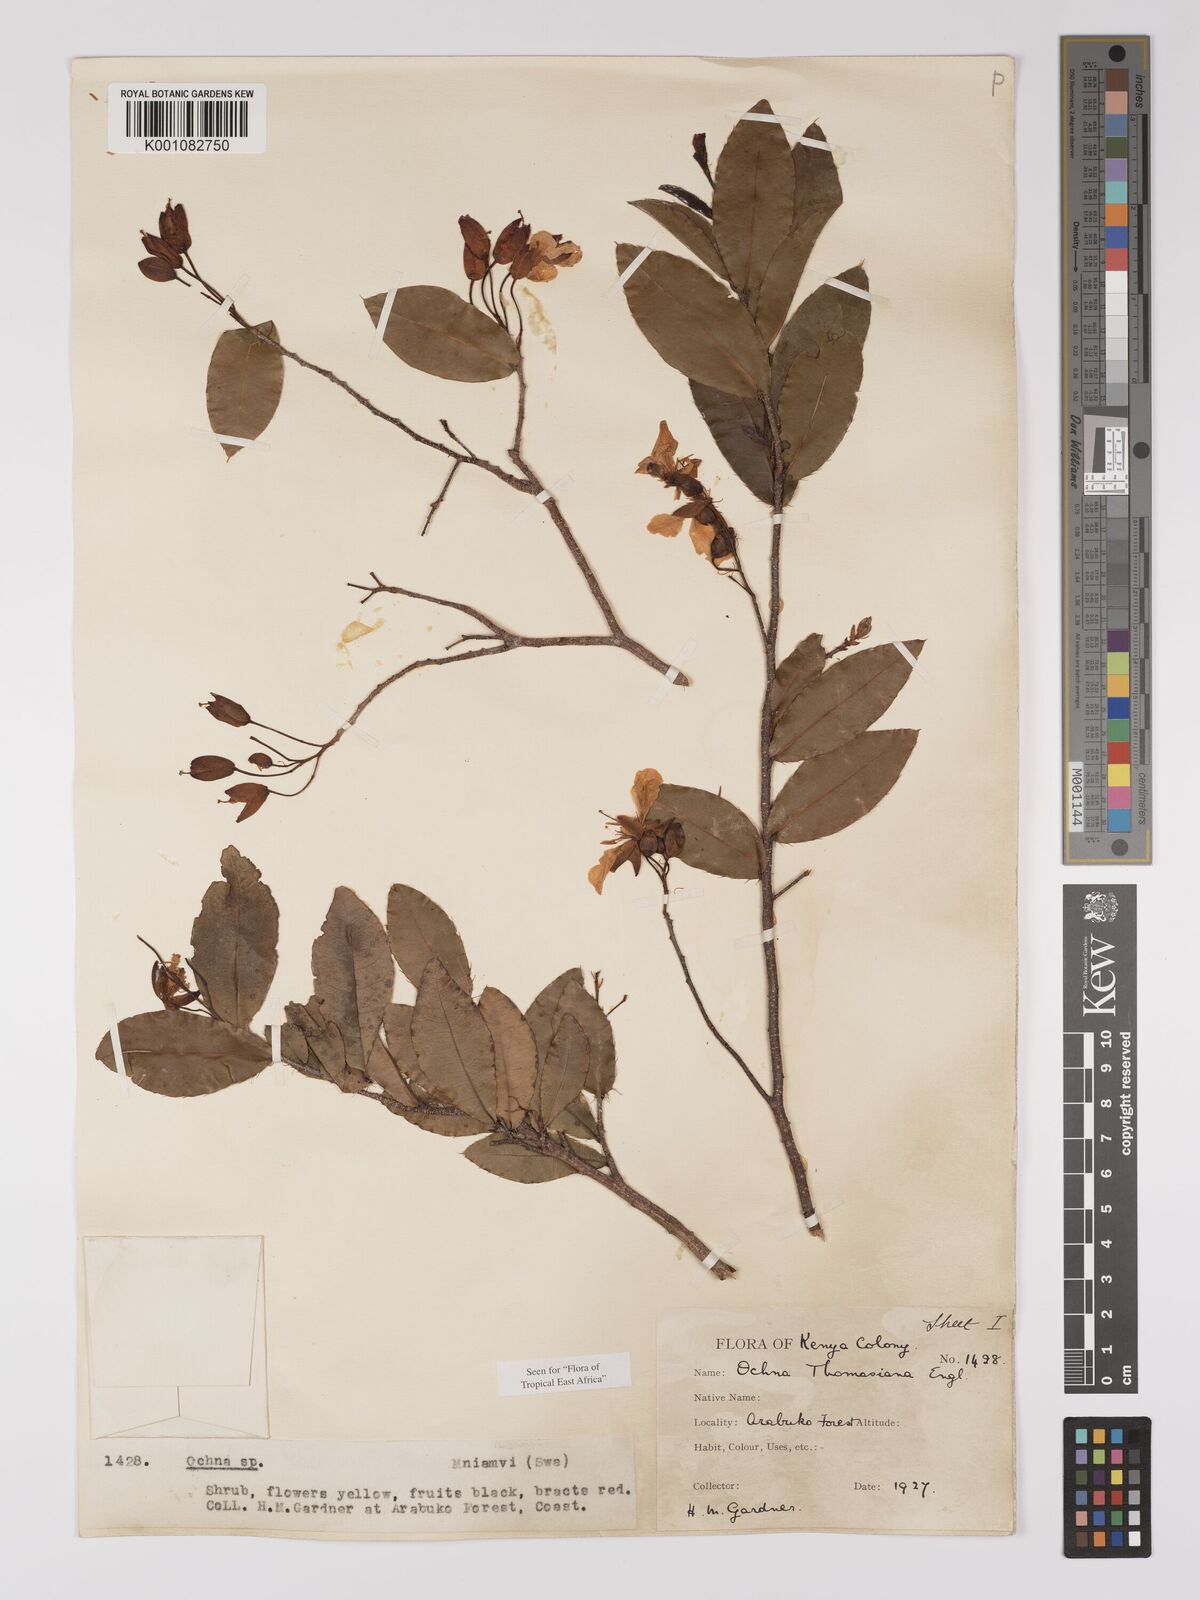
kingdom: Plantae
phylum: Tracheophyta
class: Magnoliopsida
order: Malpighiales
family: Ochnaceae
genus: Ochna
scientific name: Ochna thomasiana
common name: Thomas' bird's-eye bush
